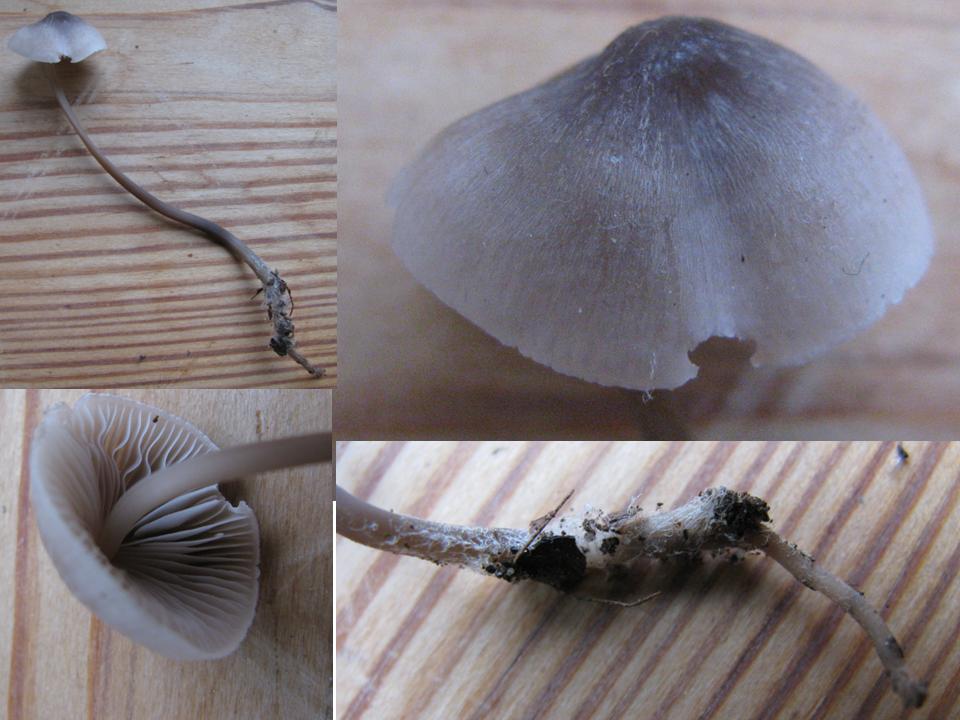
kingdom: Fungi
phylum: Basidiomycota
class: Agaricomycetes
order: Agaricales
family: Mycenaceae
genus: Mycena
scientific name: Mycena filopes
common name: jod-huesvamp
